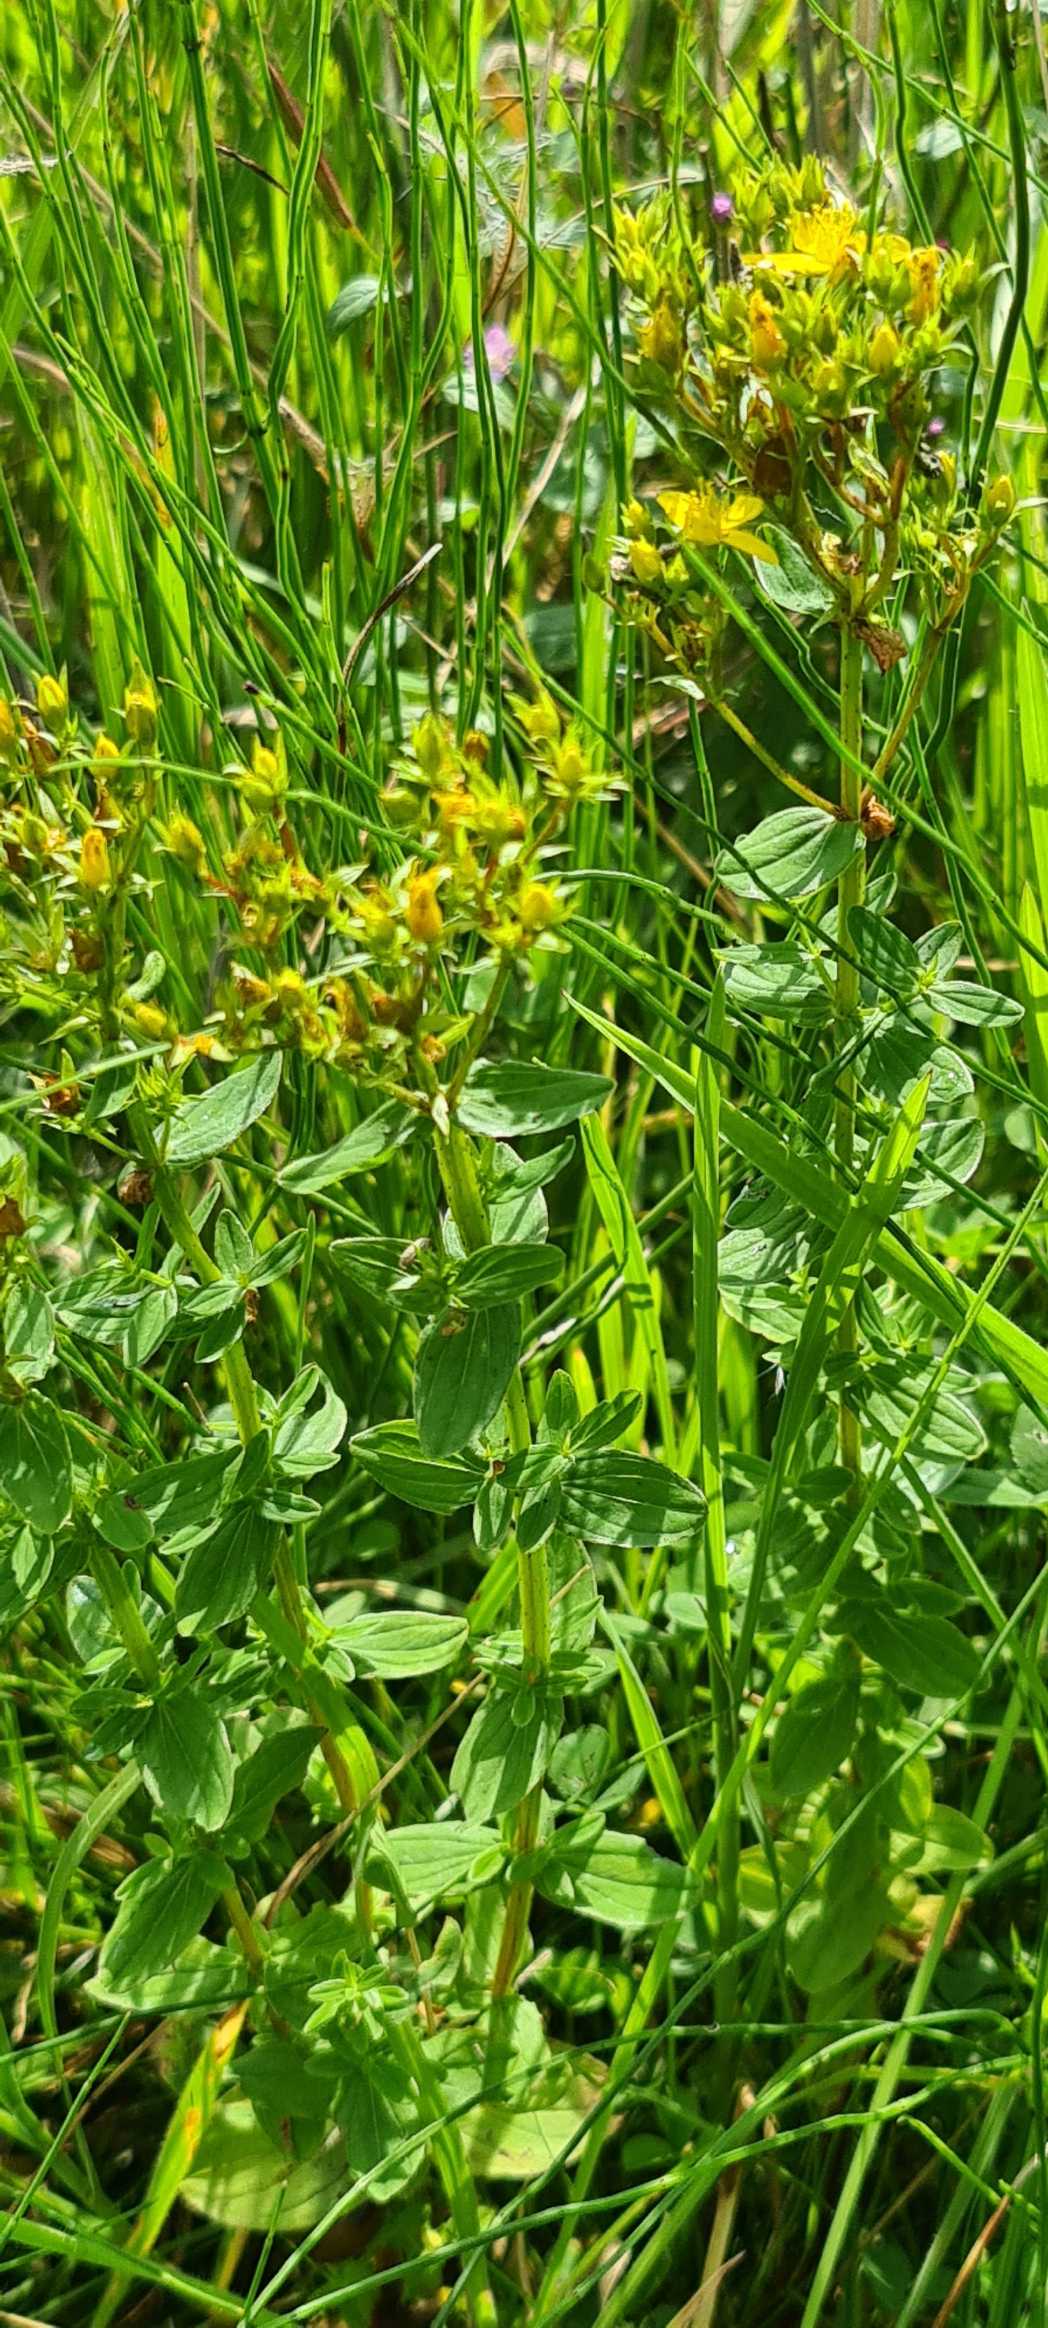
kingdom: Plantae
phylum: Tracheophyta
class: Magnoliopsida
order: Malpighiales
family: Hypericaceae
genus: Hypericum
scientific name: Hypericum tetrapterum
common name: Vinget perikon
